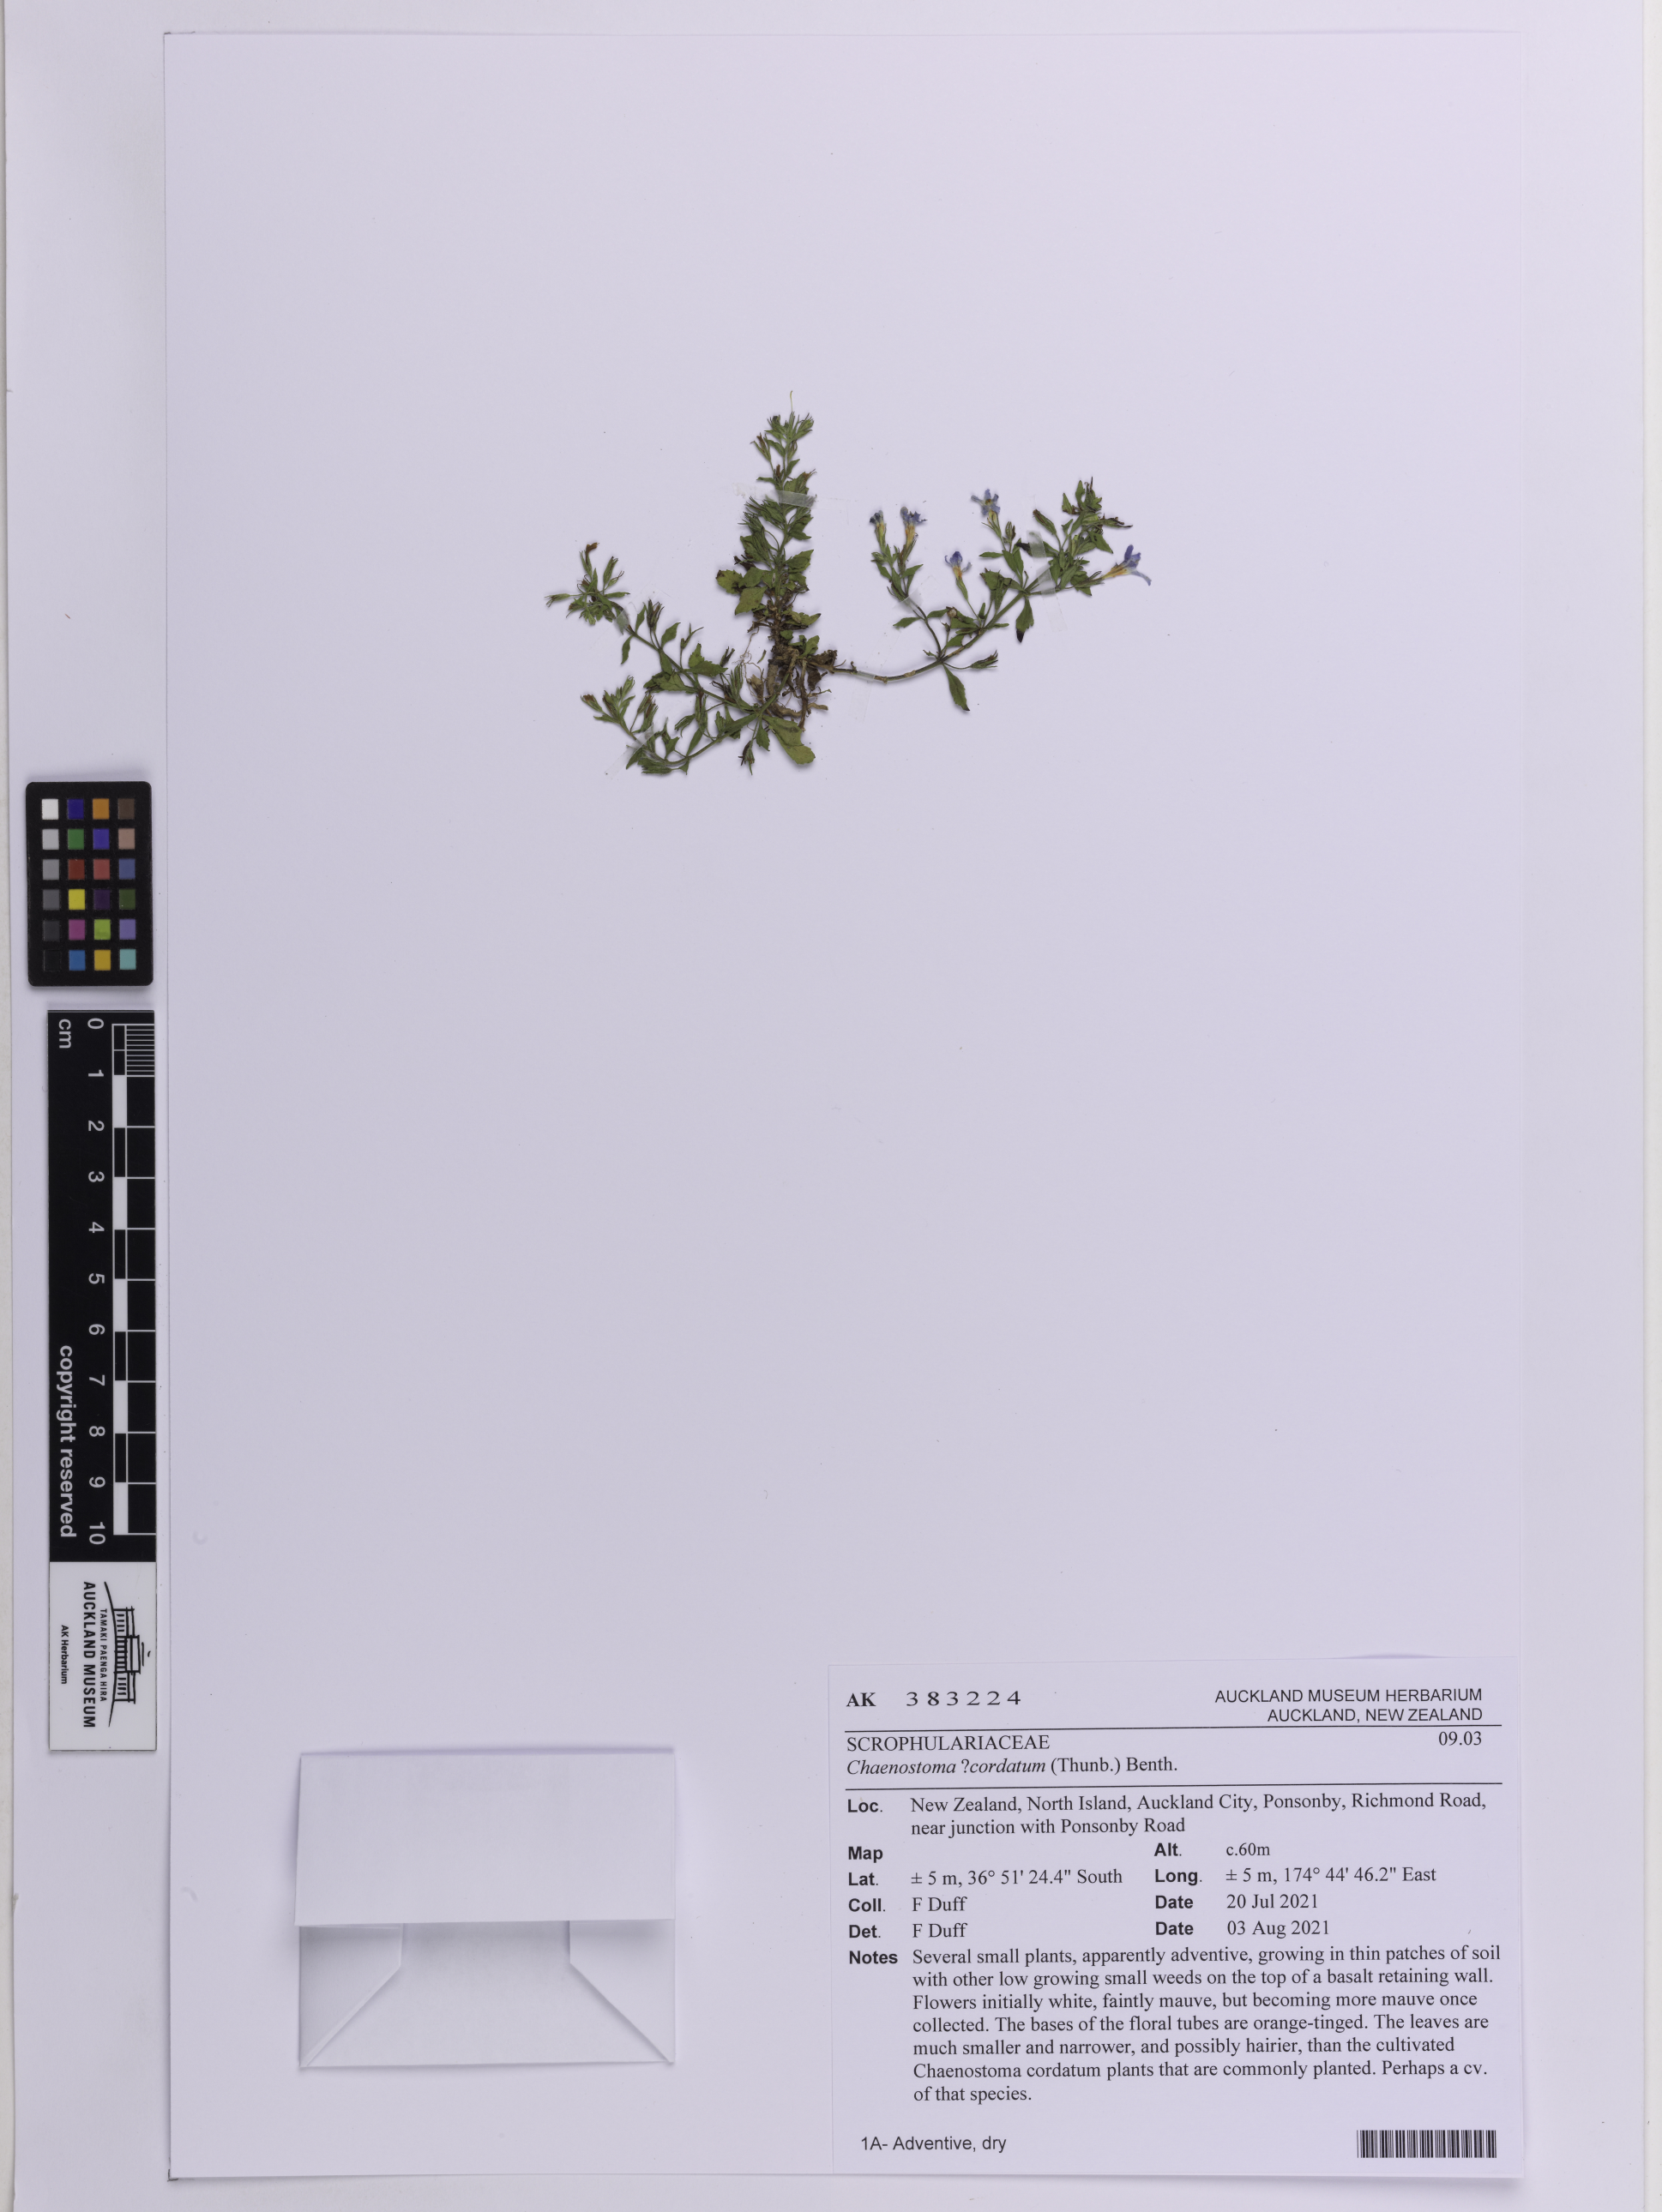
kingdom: Plantae
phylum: Tracheophyta
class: Magnoliopsida
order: Lamiales
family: Scrophulariaceae
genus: Chaenostoma
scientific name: Chaenostoma cordatum
